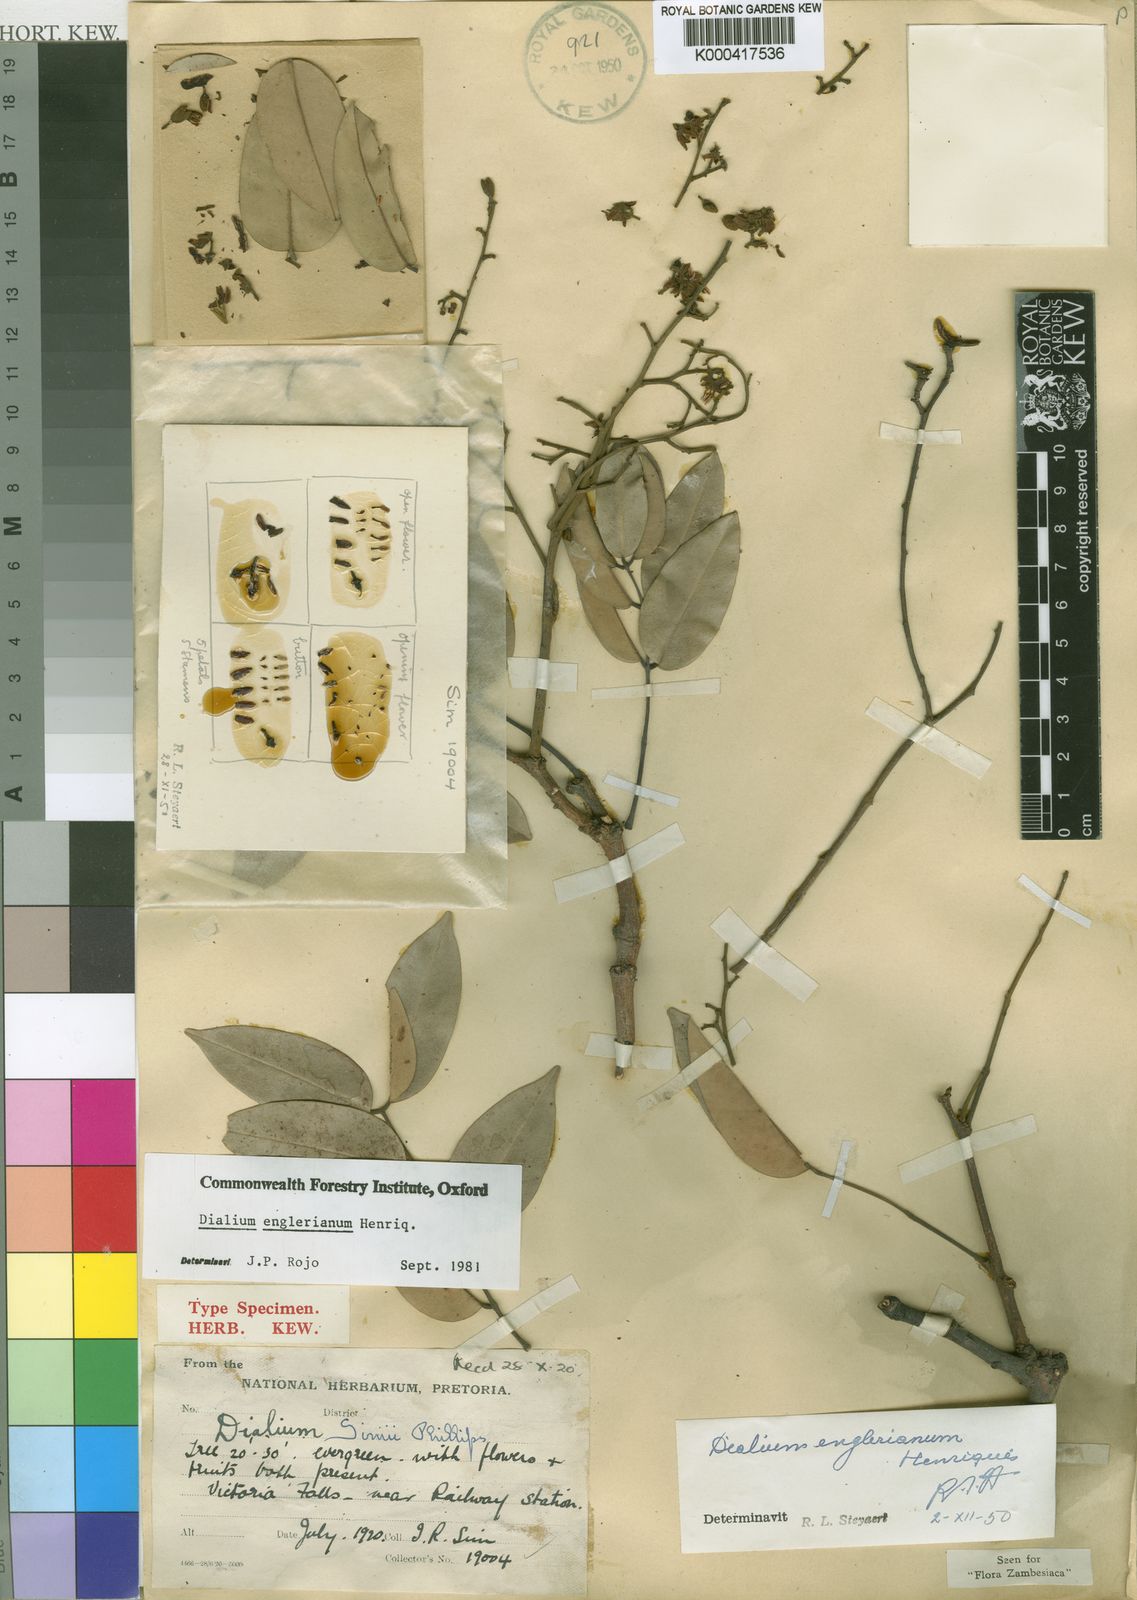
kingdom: Plantae
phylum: Tracheophyta
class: Magnoliopsida
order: Fabales
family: Fabaceae
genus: Dialium
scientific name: Dialium
